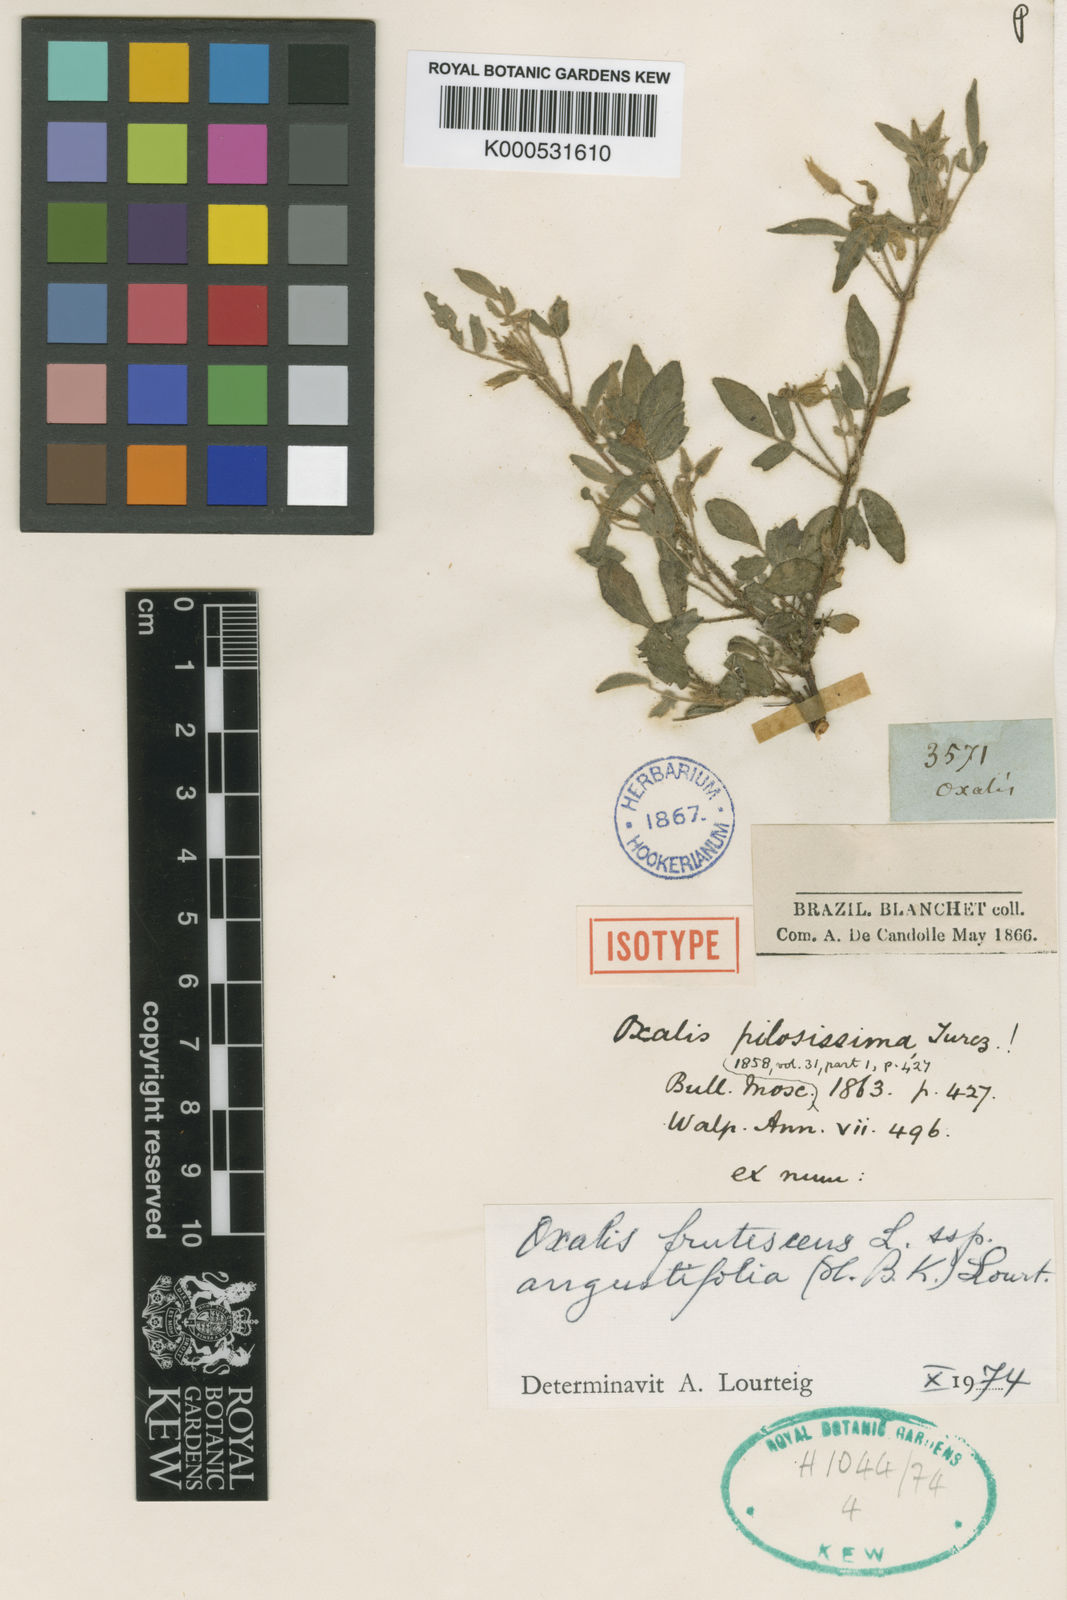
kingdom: Plantae
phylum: Tracheophyta
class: Magnoliopsida
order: Oxalidales
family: Oxalidaceae
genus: Oxalis
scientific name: Oxalis frutescens
